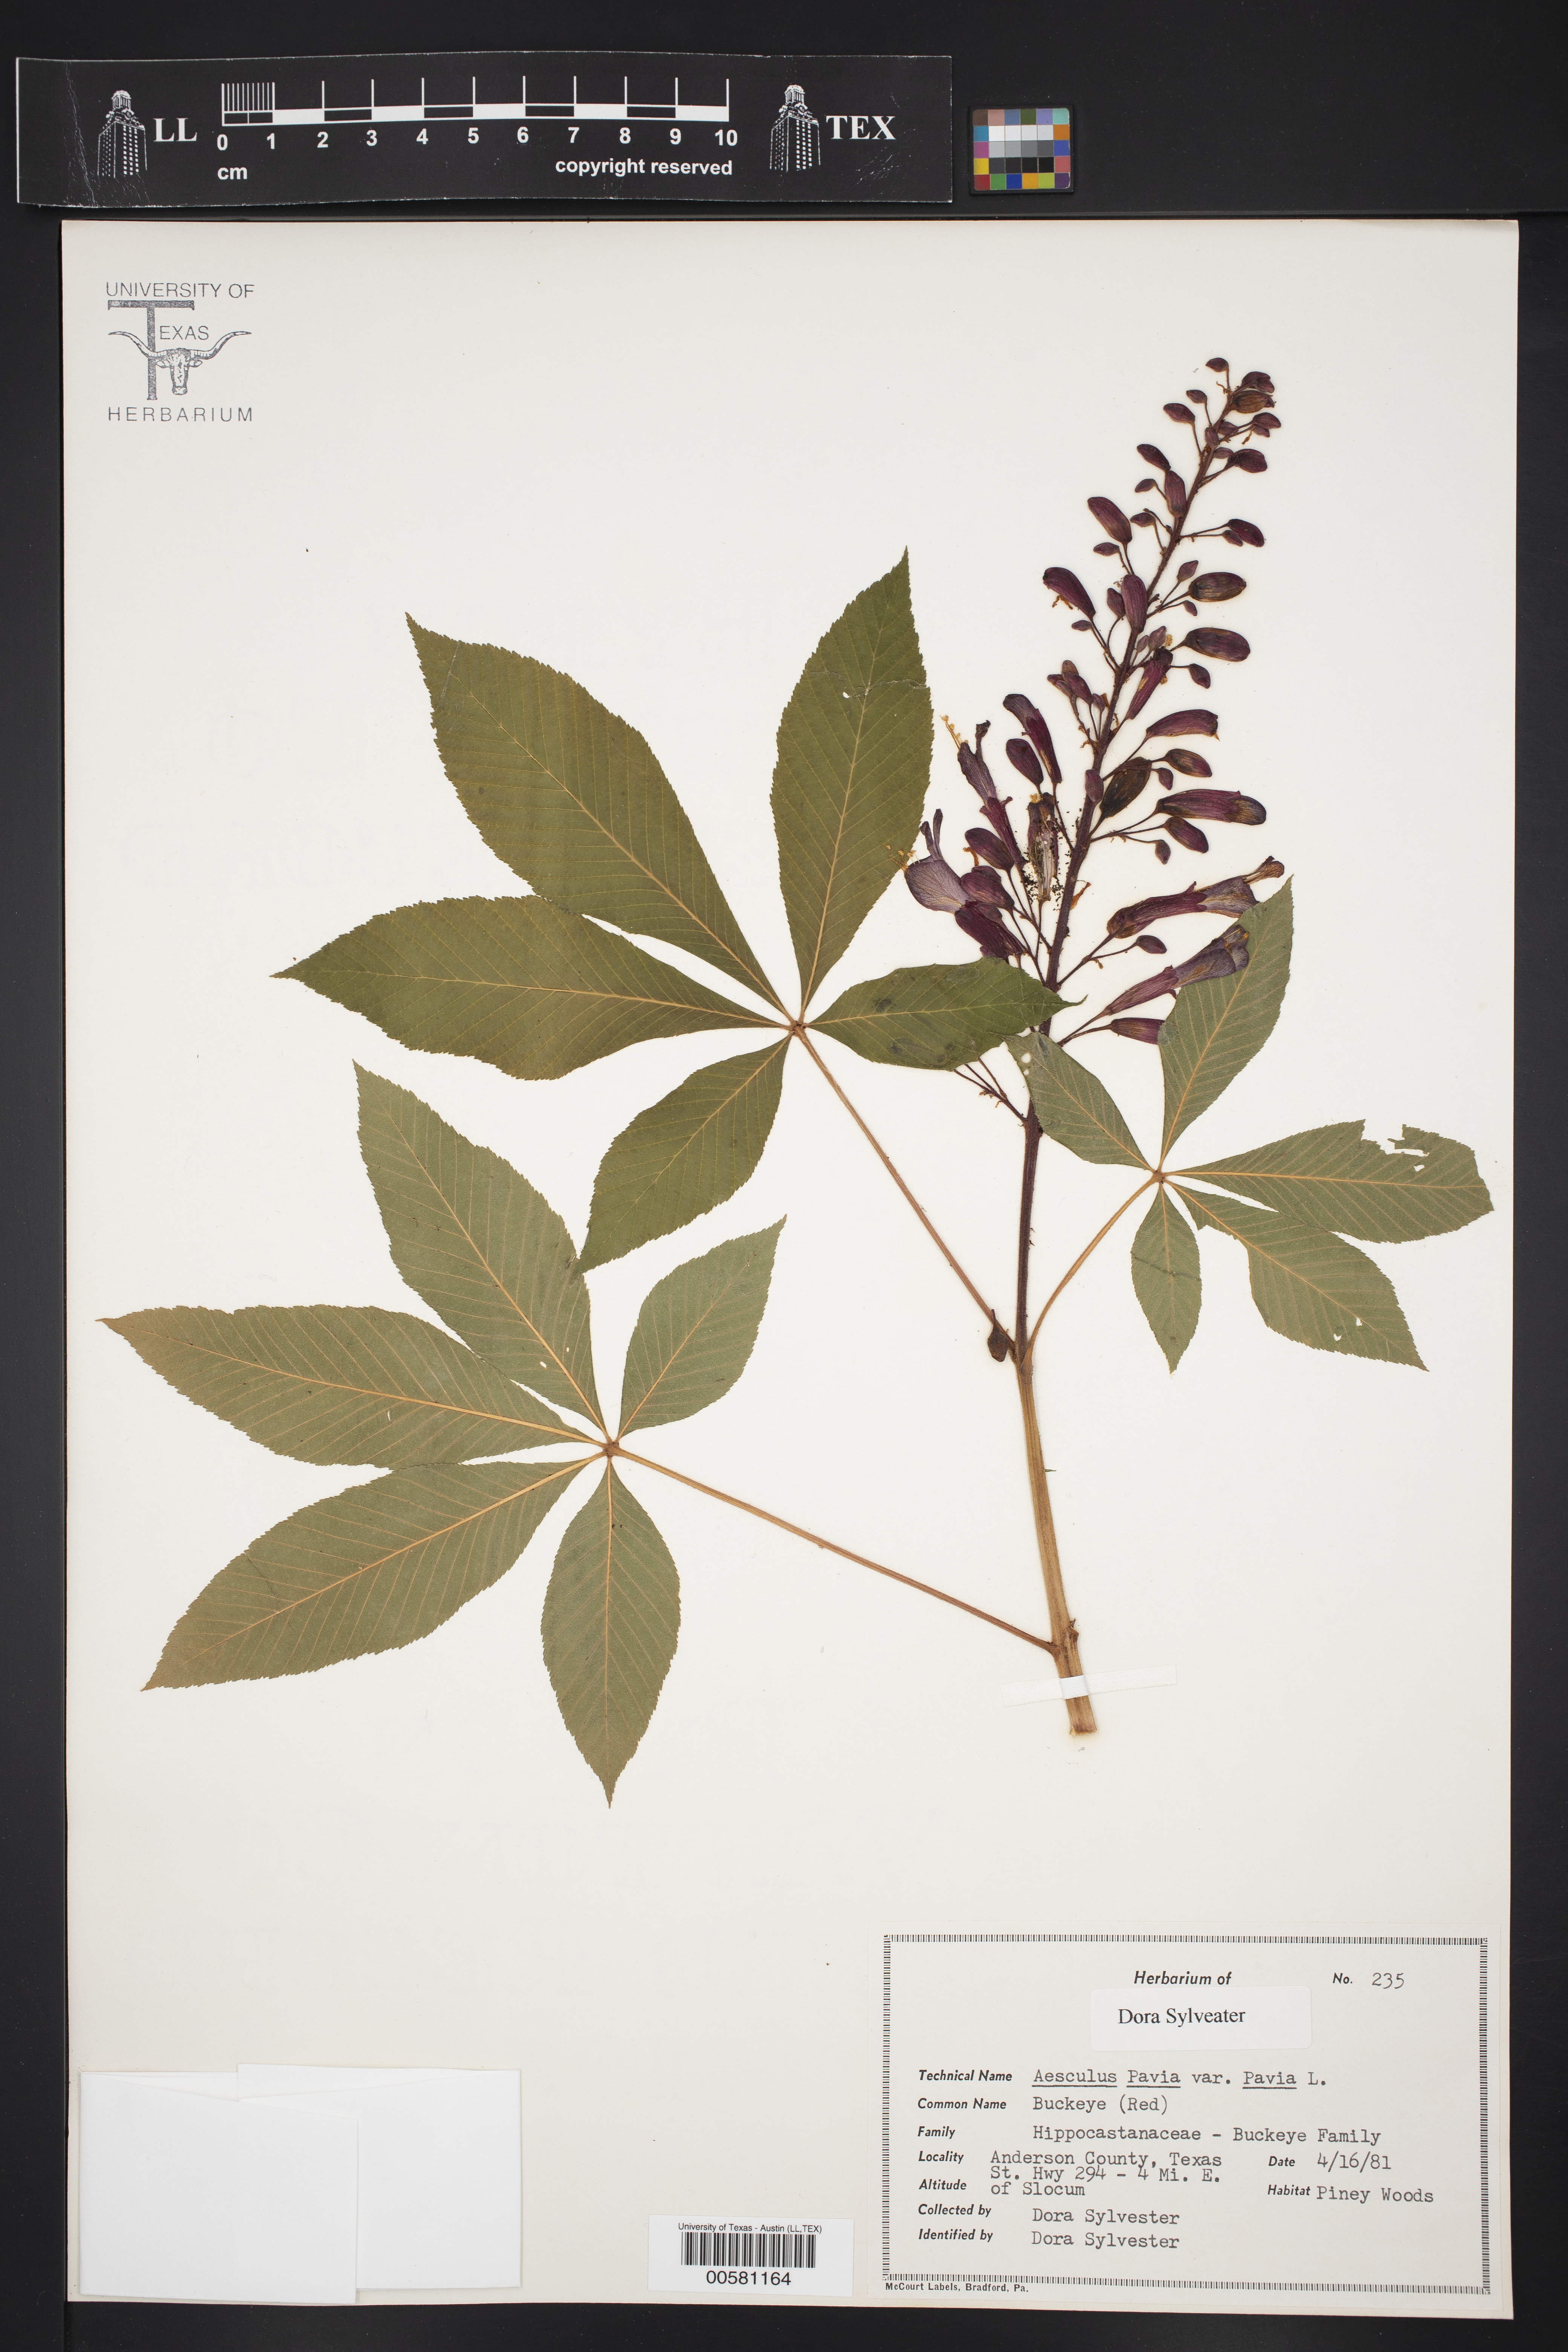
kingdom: Plantae
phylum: Tracheophyta
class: Magnoliopsida
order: Sapindales
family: Sapindaceae
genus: Aesculus
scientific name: Aesculus pavia
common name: Red buckeye
